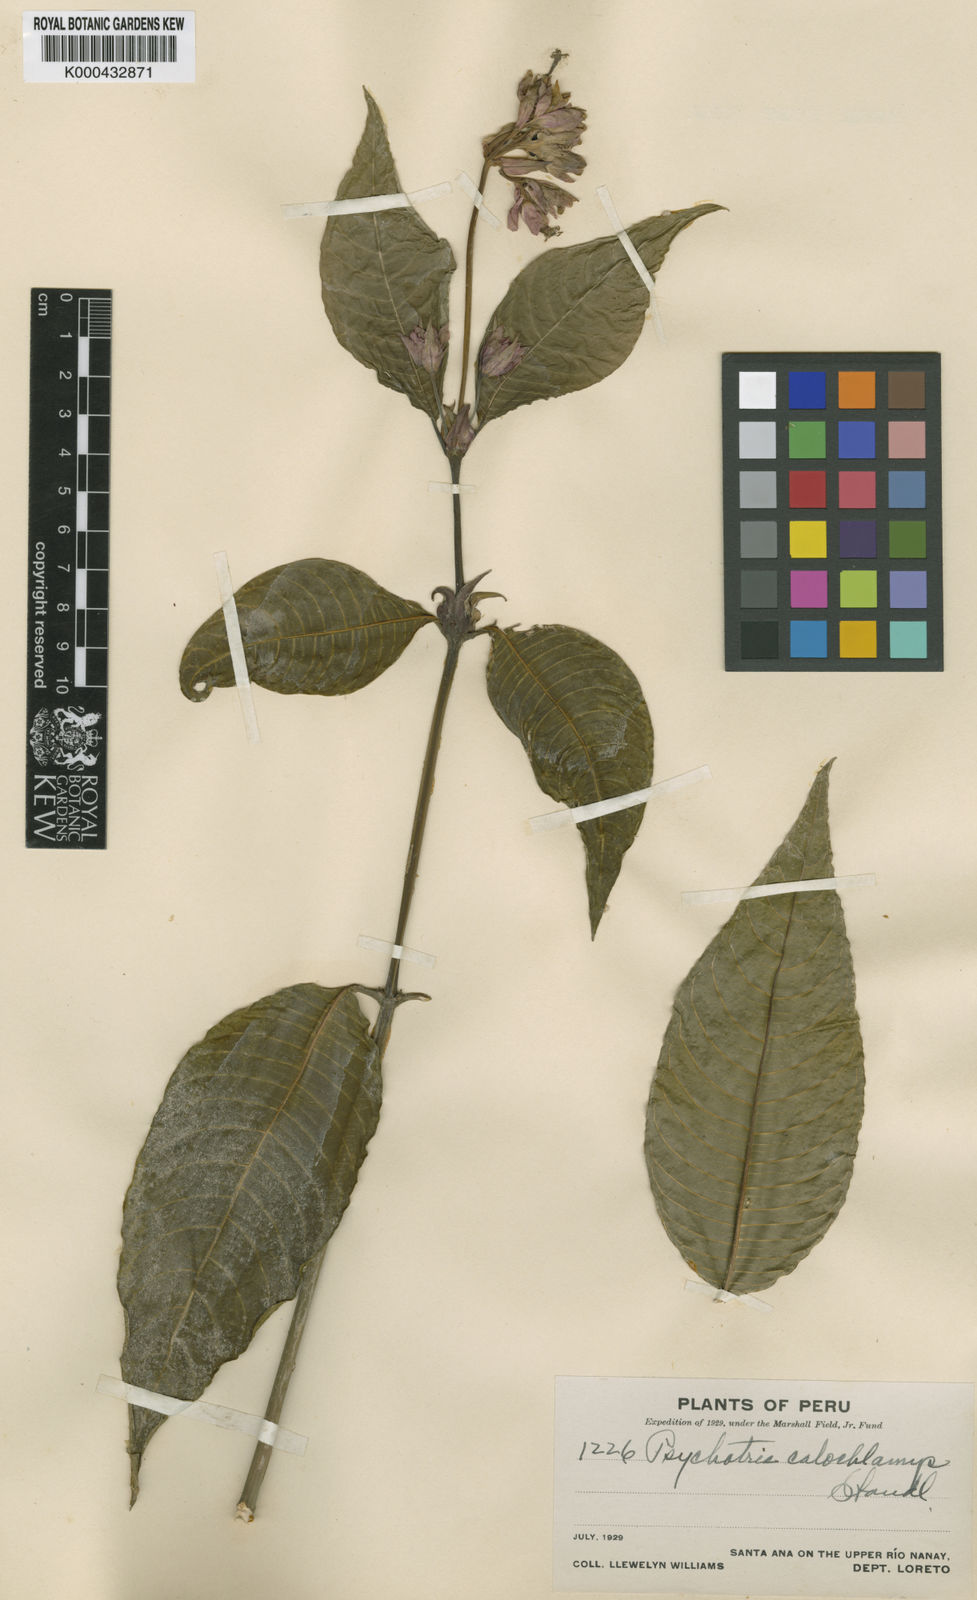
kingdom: Plantae
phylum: Tracheophyta
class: Magnoliopsida
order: Gentianales
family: Rubiaceae
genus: Palicourea
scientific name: Palicourea stipulosa
